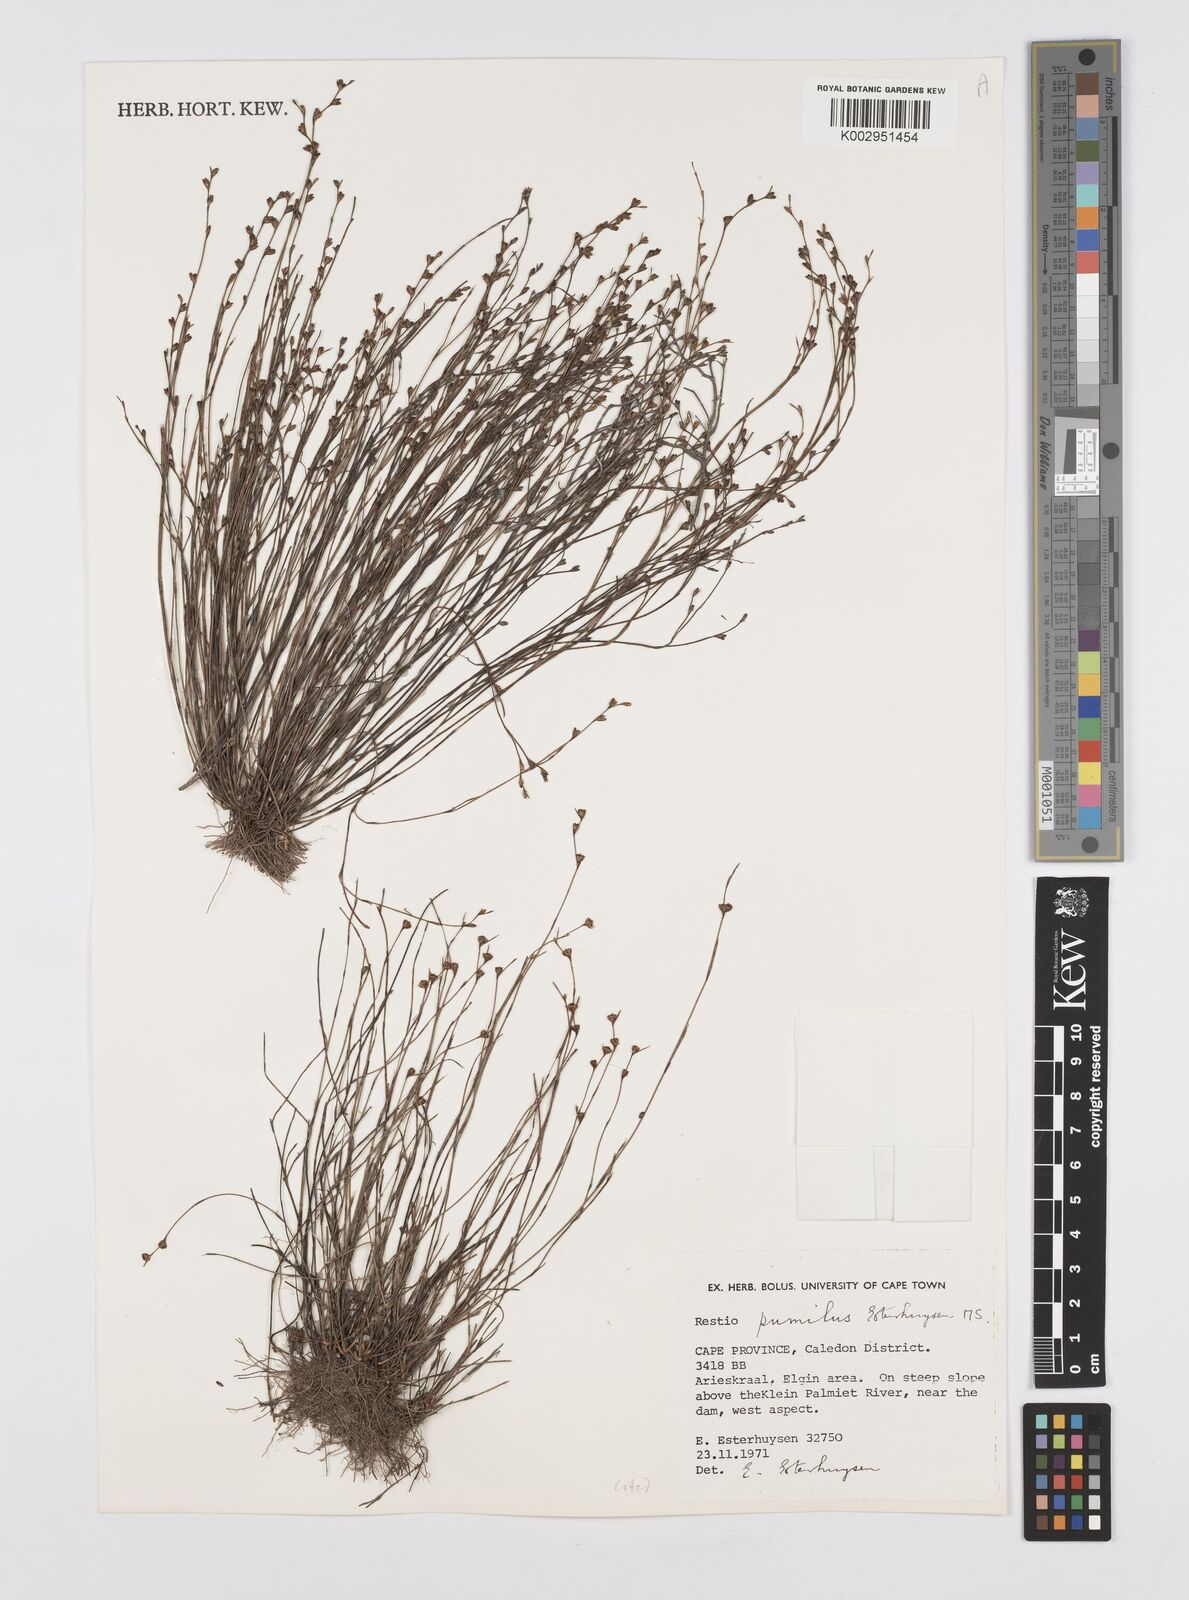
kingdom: Plantae
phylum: Tracheophyta
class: Liliopsida
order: Poales
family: Restionaceae
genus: Restio
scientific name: Restio pumilus
